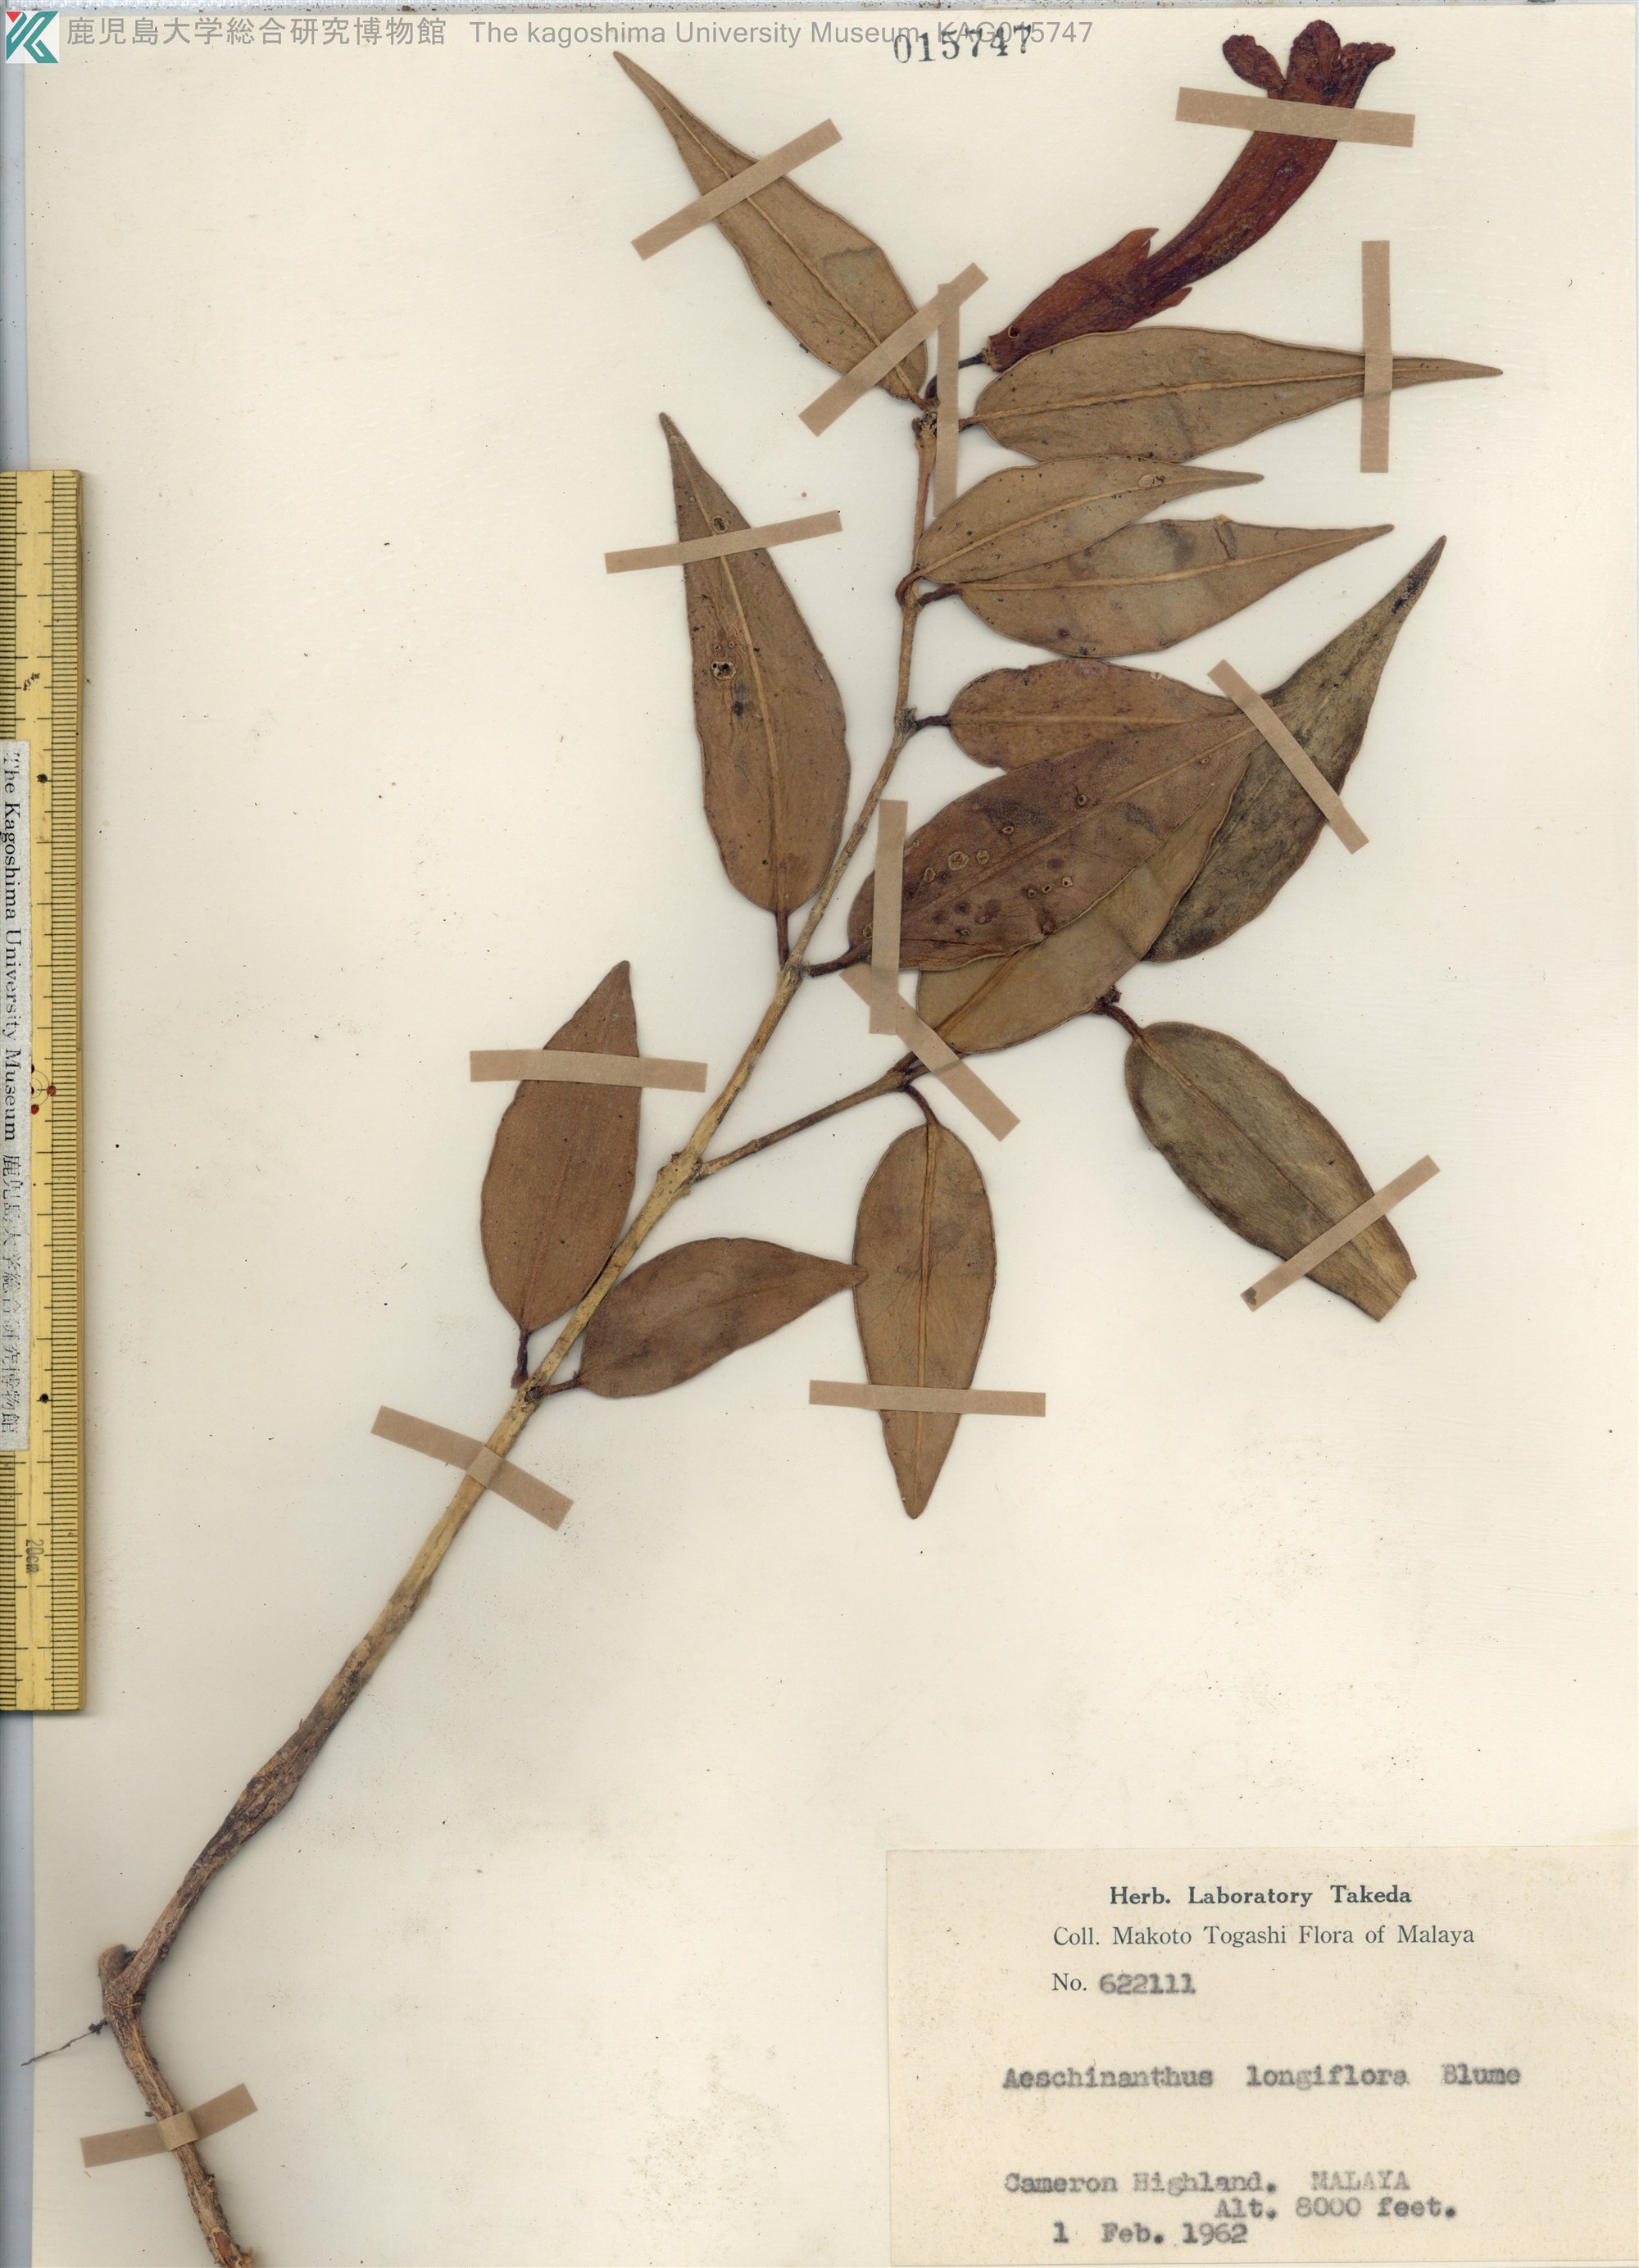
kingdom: Plantae
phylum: Tracheophyta
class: Magnoliopsida
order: Malvales
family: Malvaceae
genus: Trichospermum
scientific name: Trichospermum
